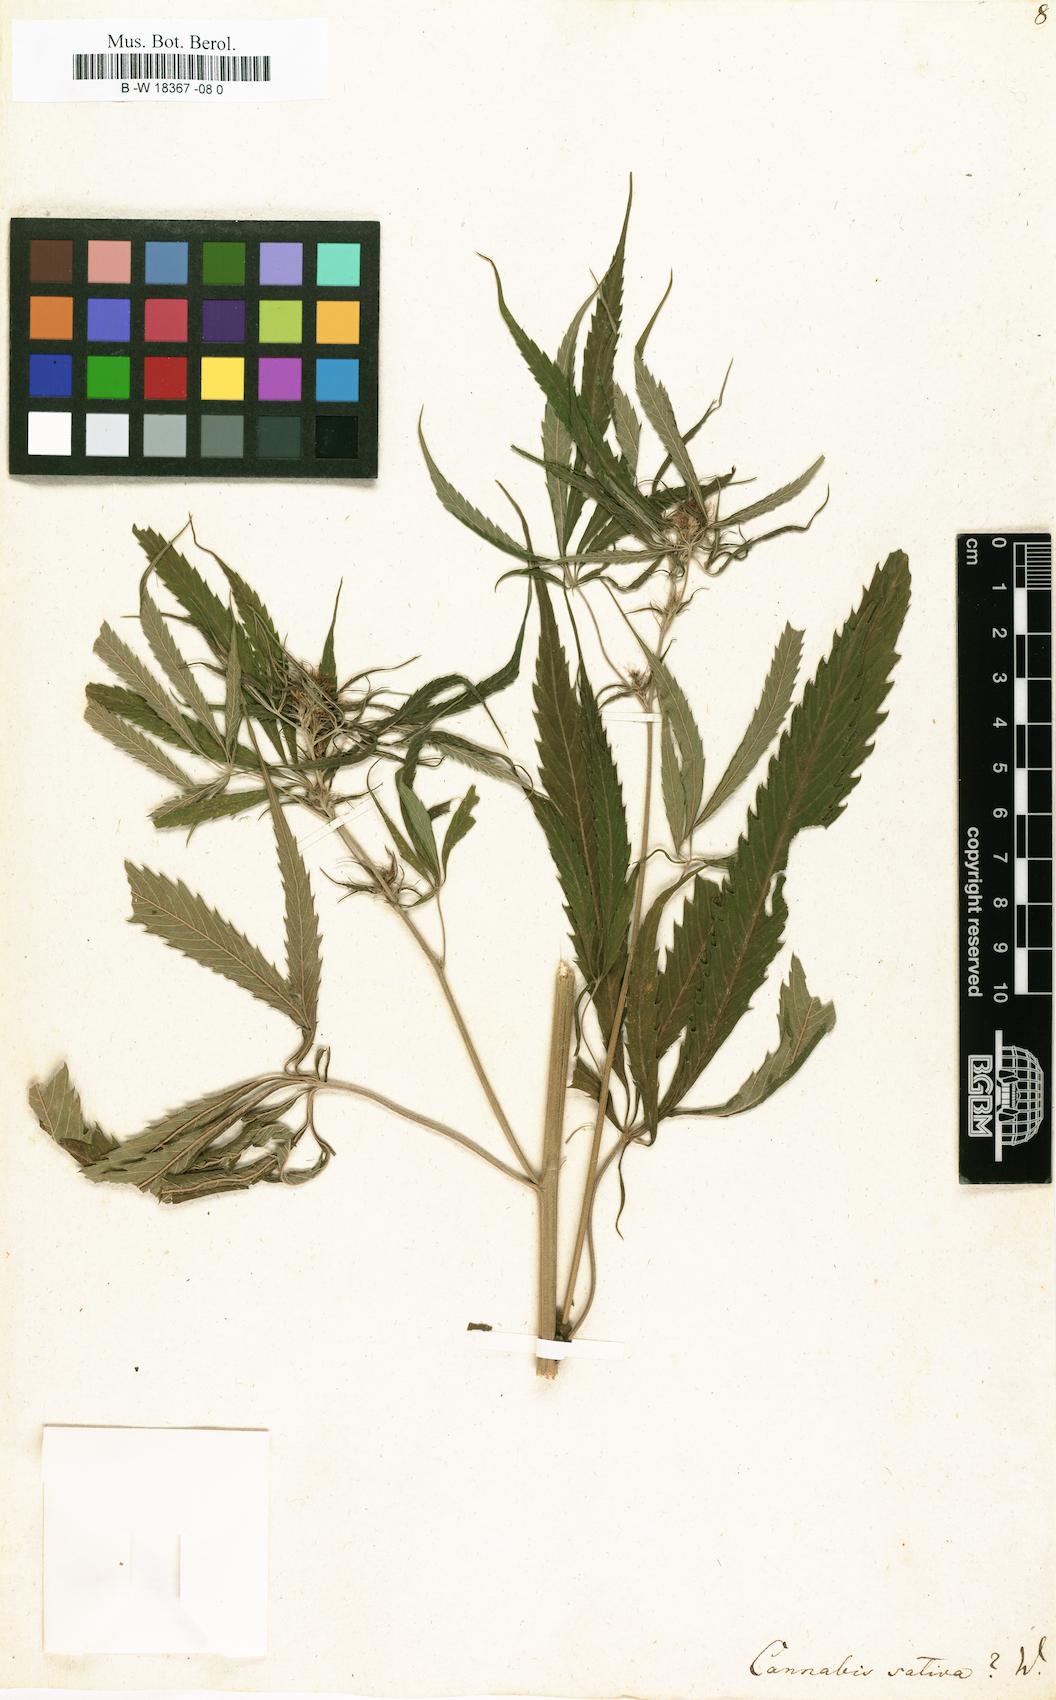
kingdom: Plantae
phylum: Tracheophyta
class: Magnoliopsida
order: Rosales
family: Cannabaceae
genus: Cannabis
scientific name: Cannabis sativa
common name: Hemp
